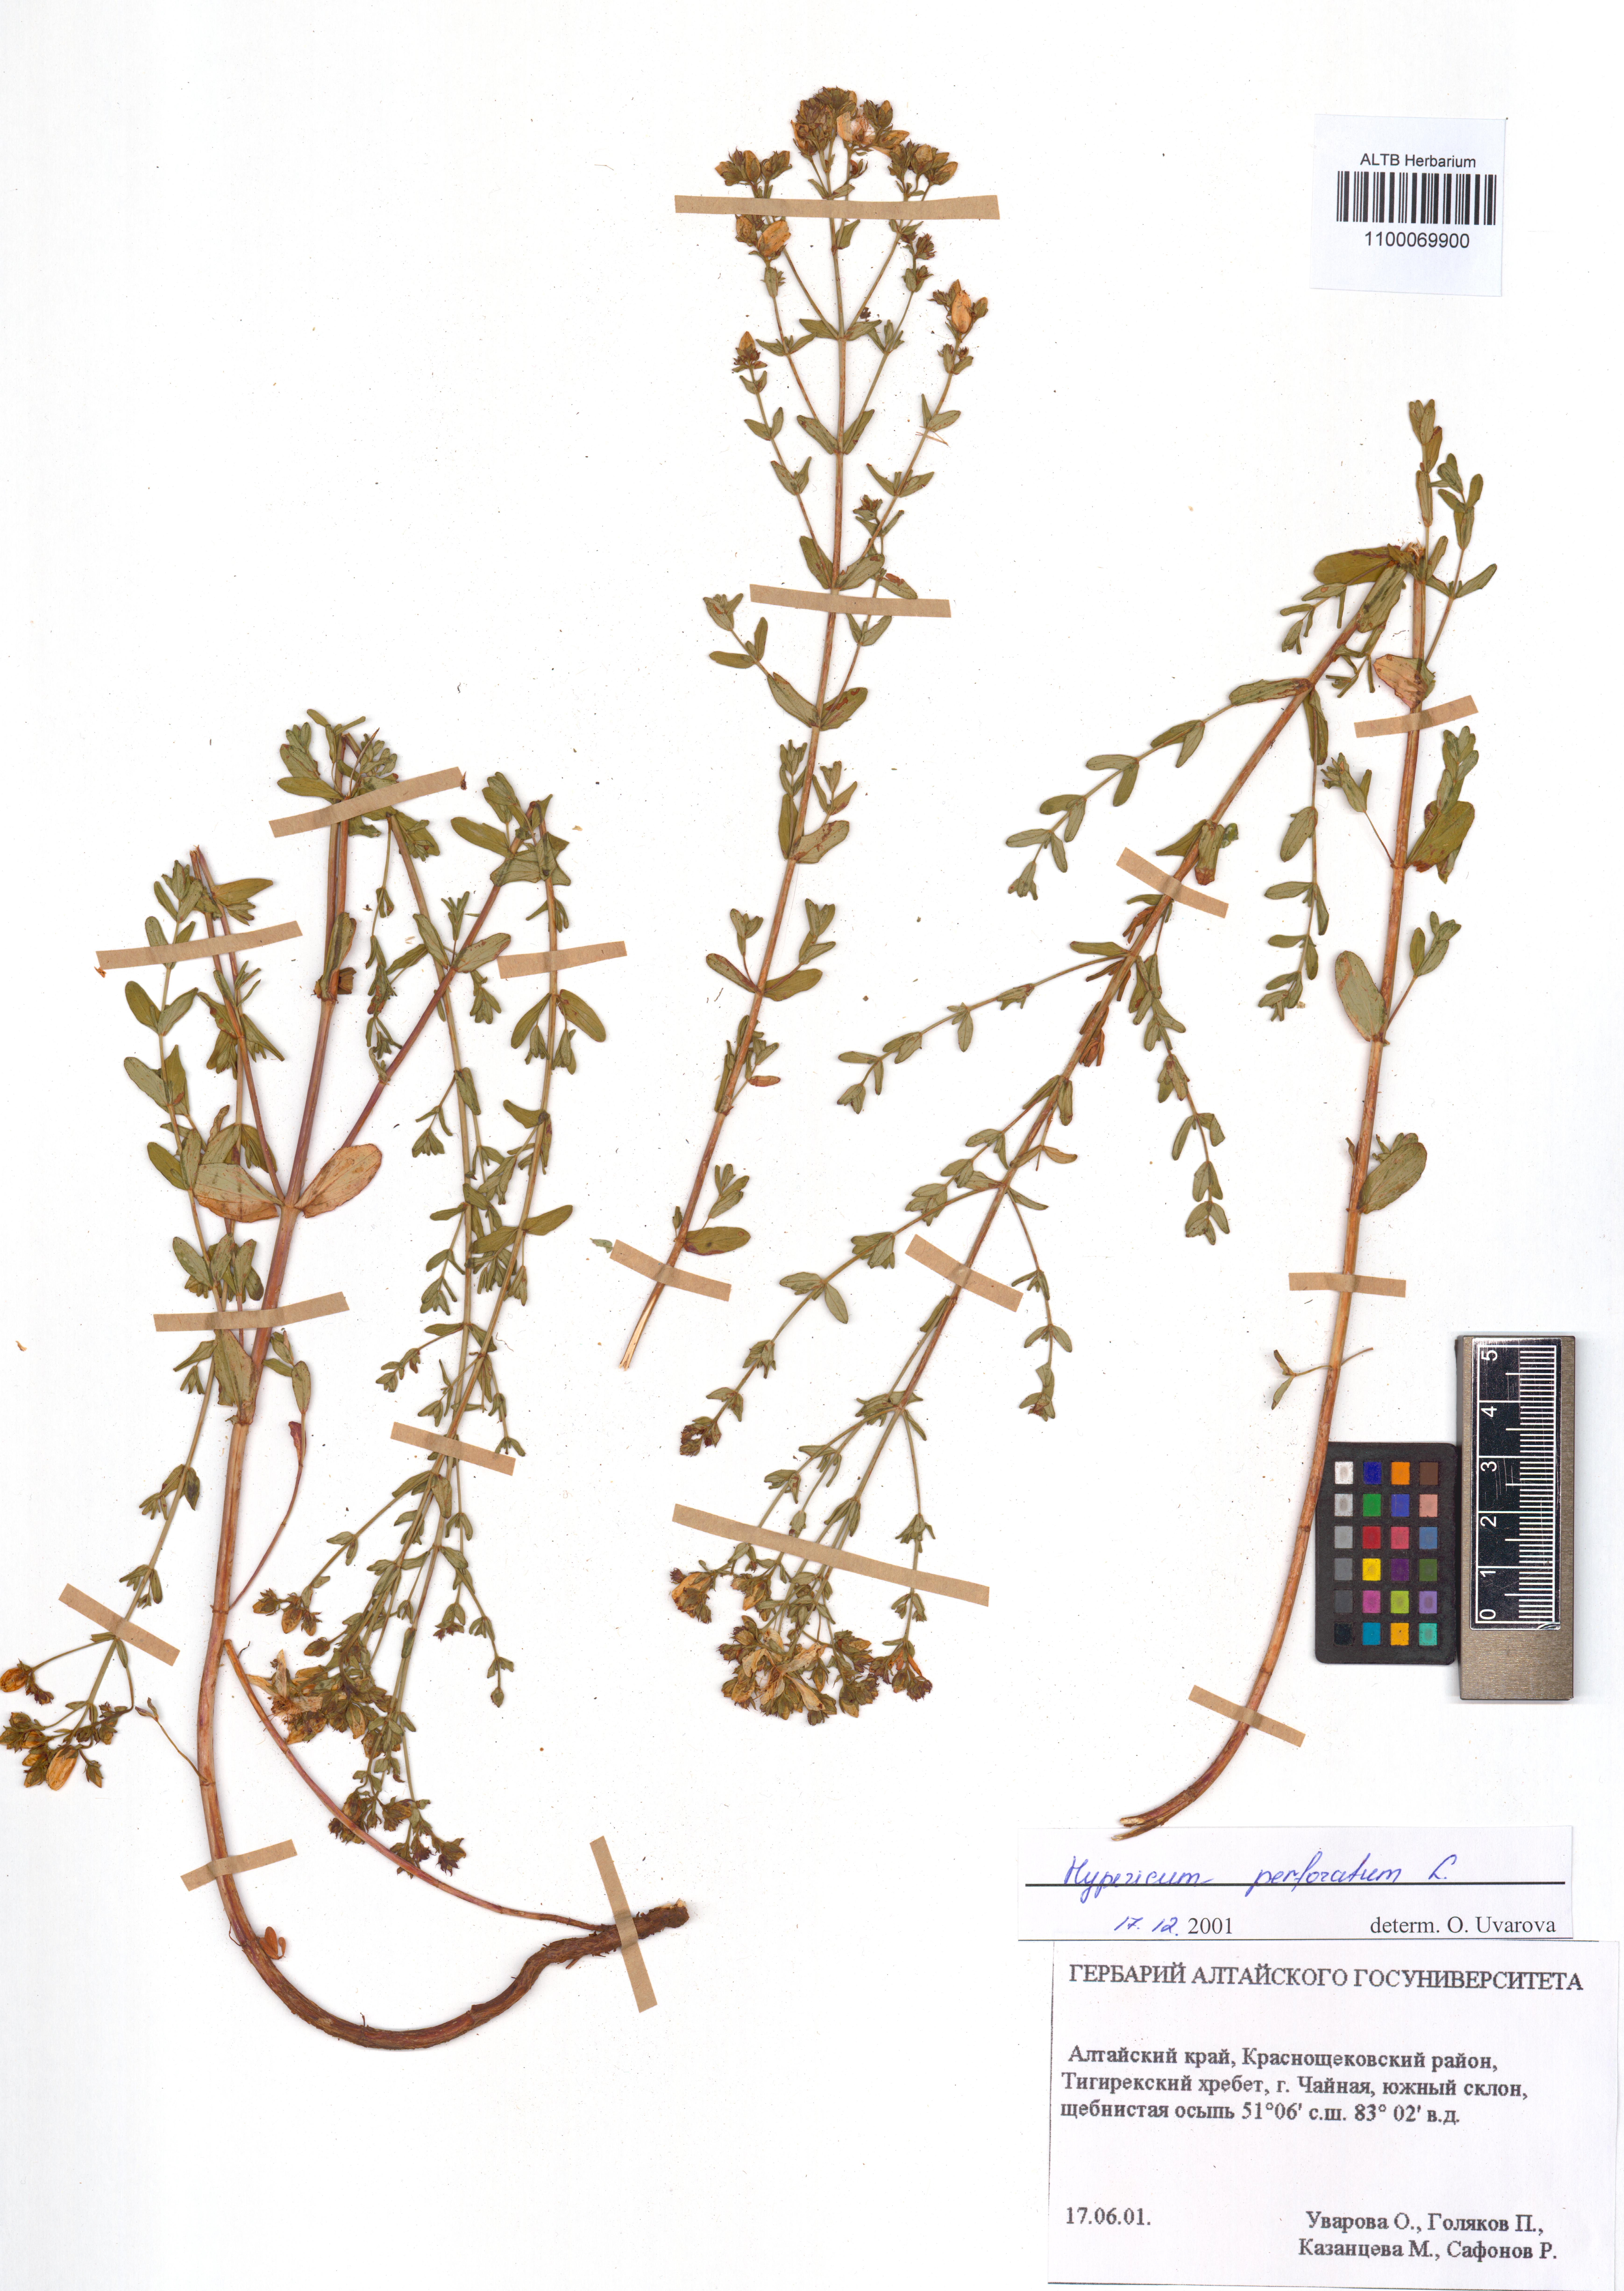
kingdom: Plantae
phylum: Tracheophyta
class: Magnoliopsida
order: Malpighiales
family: Hypericaceae
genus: Hypericum
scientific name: Hypericum perforatum
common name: Common st. johnswort
